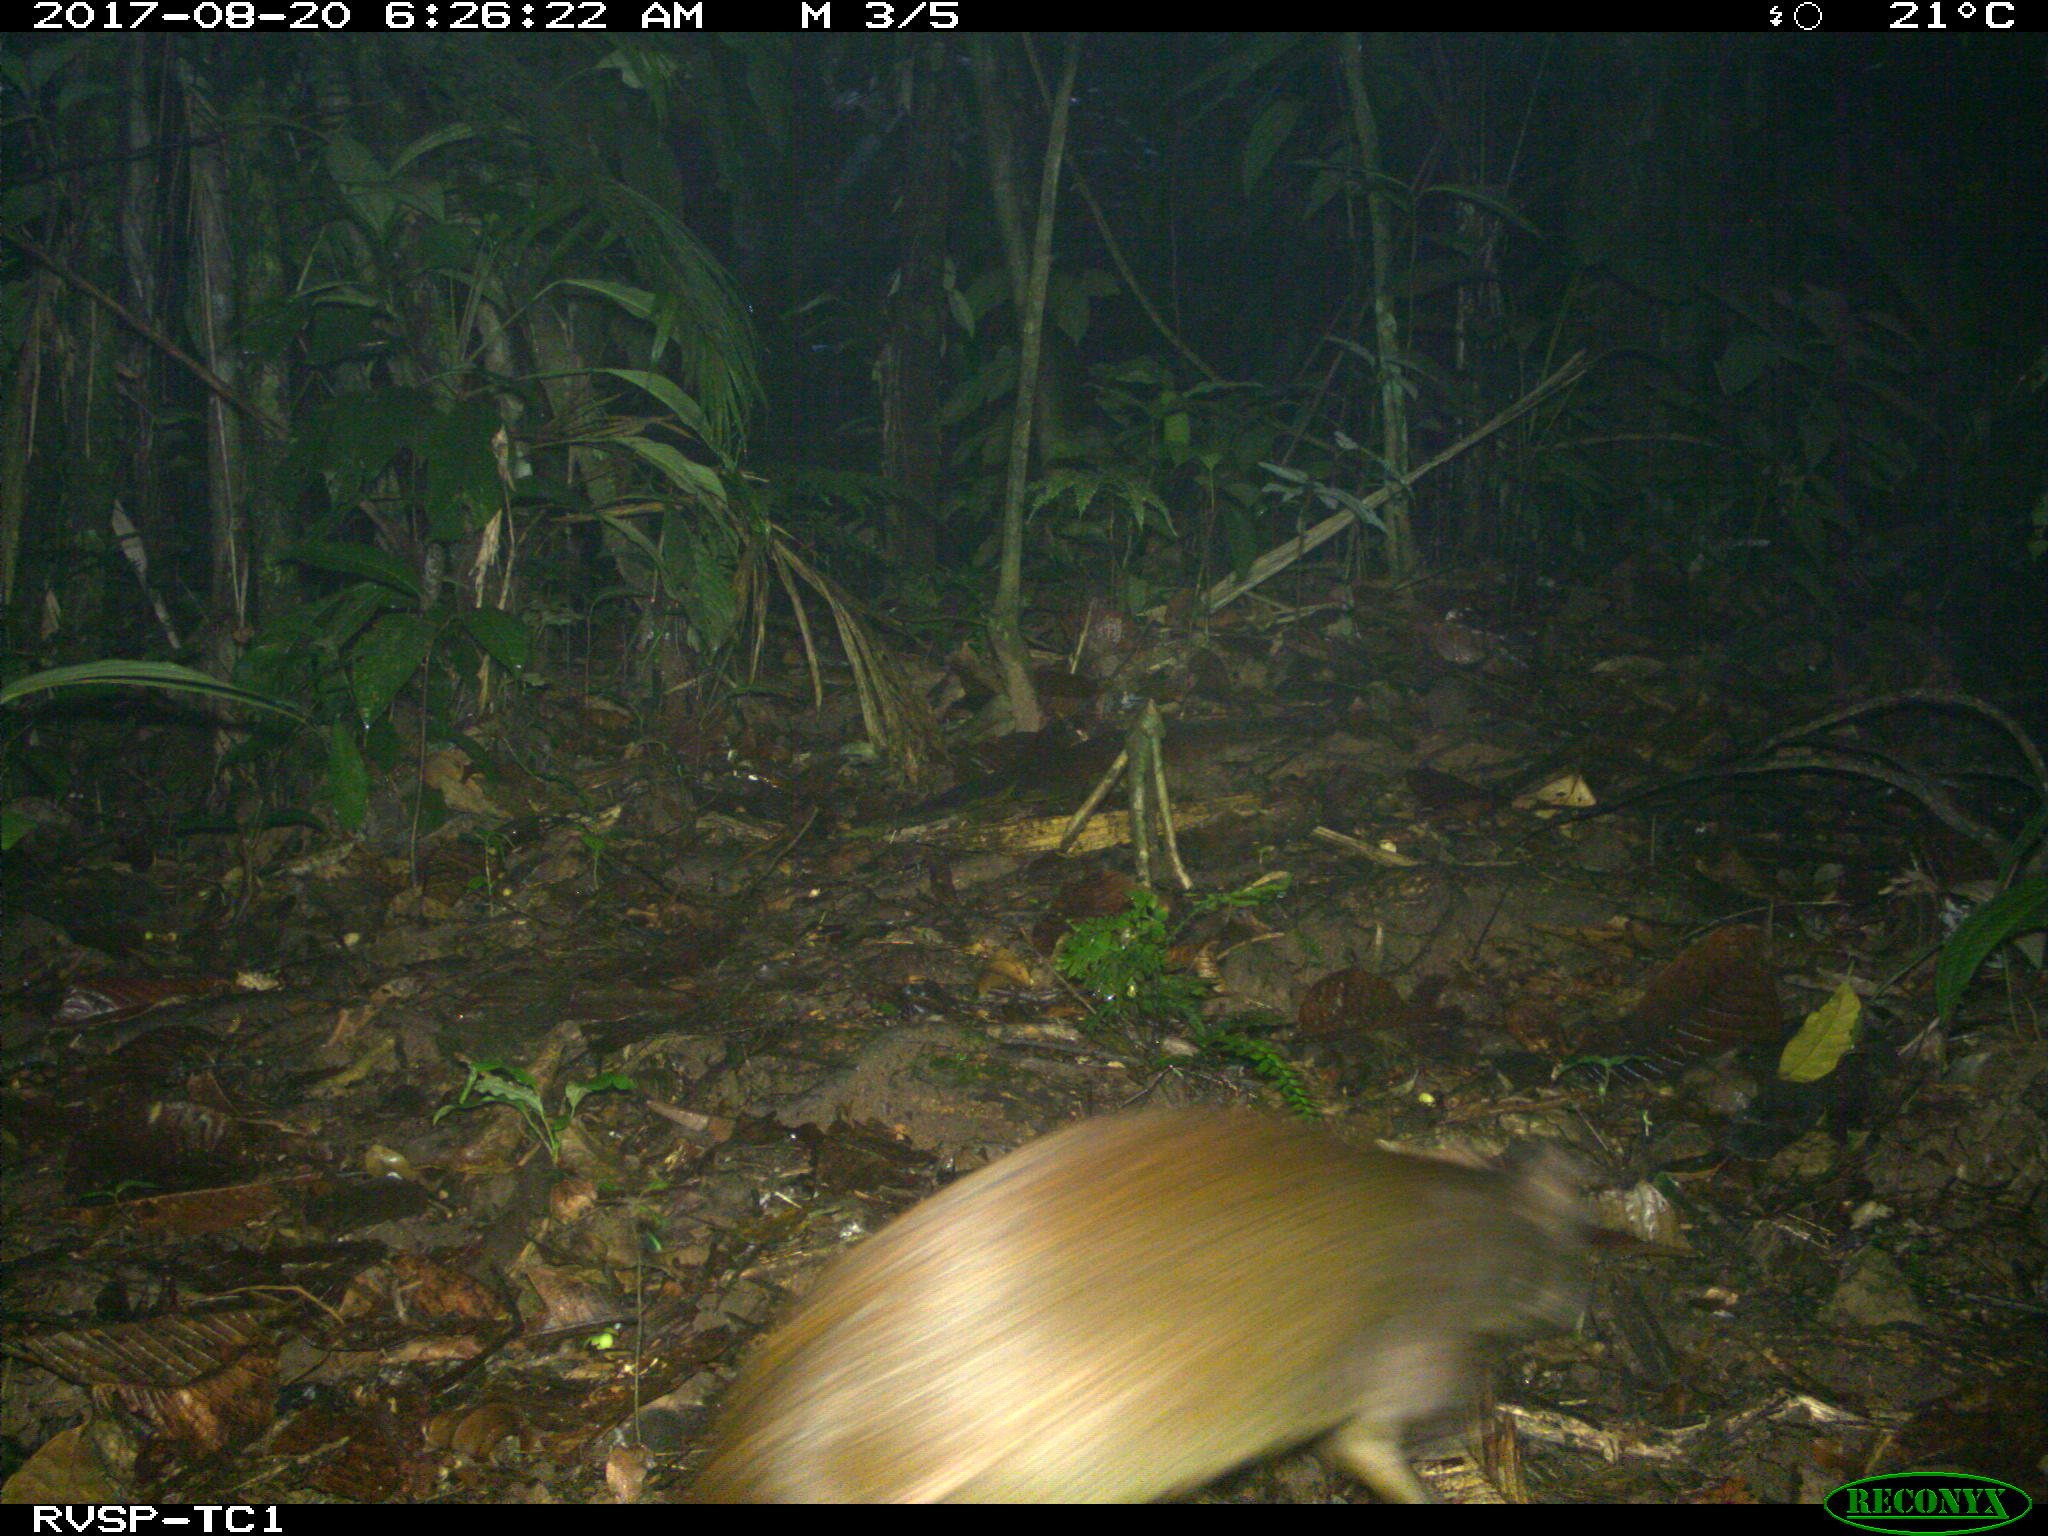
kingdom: Animalia
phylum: Chordata
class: Mammalia
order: Rodentia
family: Dasyproctidae
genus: Dasyprocta
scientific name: Dasyprocta punctata
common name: Central american agouti
